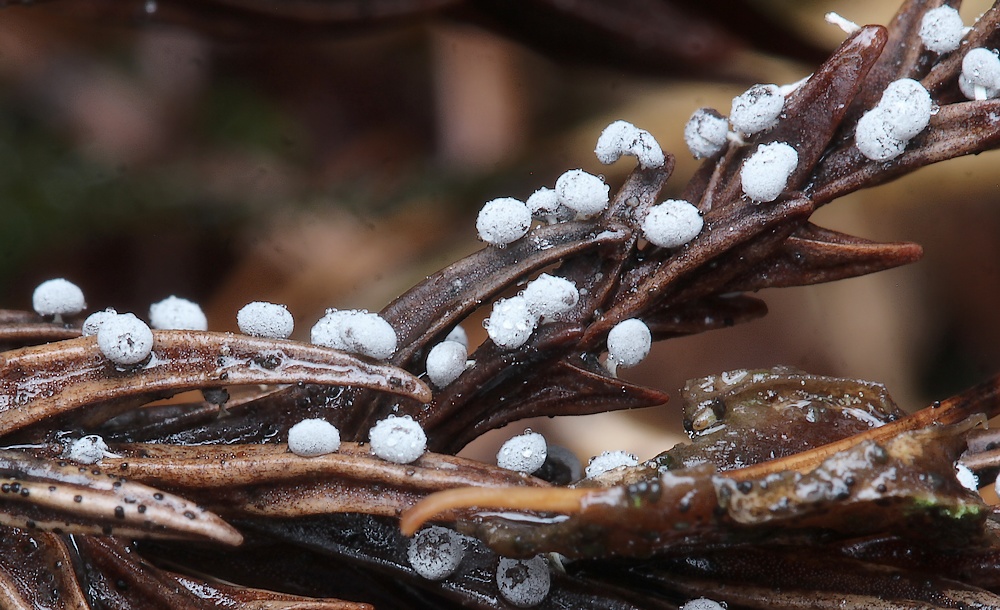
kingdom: Protozoa
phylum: Mycetozoa
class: Myxomycetes
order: Physarales
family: Didymiaceae
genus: Didymium
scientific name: Didymium squamulosum
